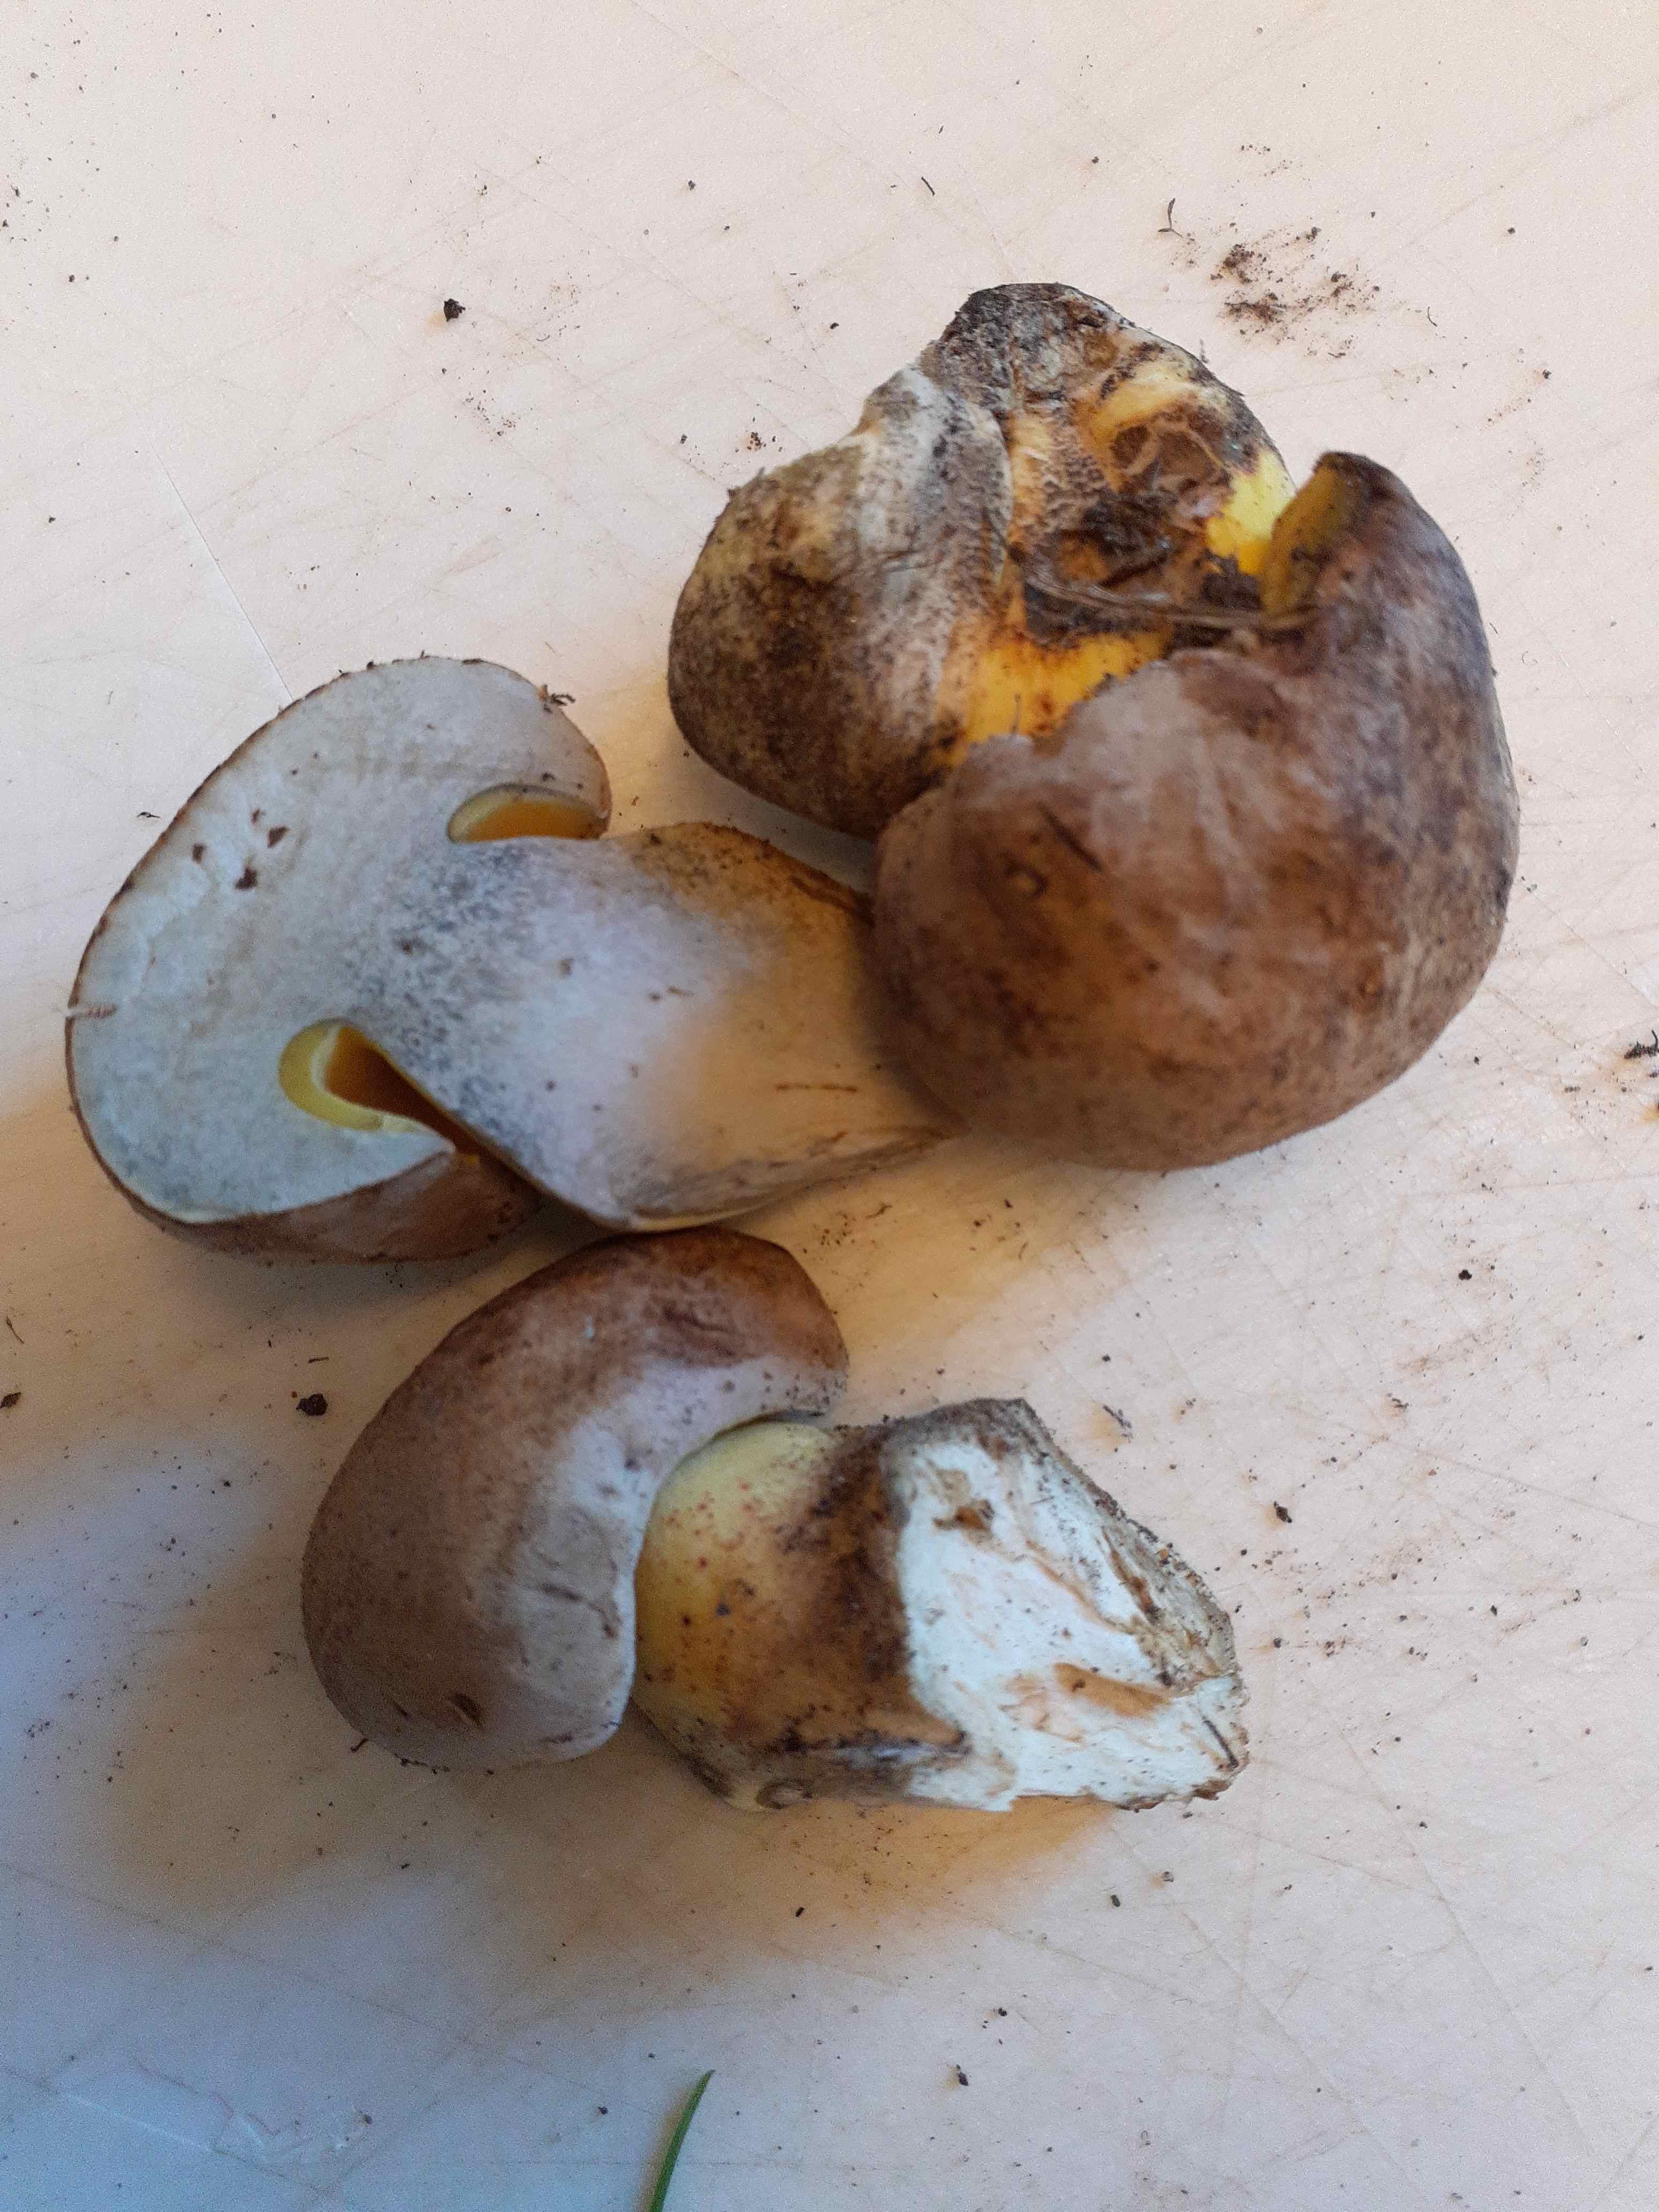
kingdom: Fungi
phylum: Basidiomycota
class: Agaricomycetes
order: Boletales
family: Boletaceae
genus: Caloboletus
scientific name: Caloboletus radicans
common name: rod-rørhat
